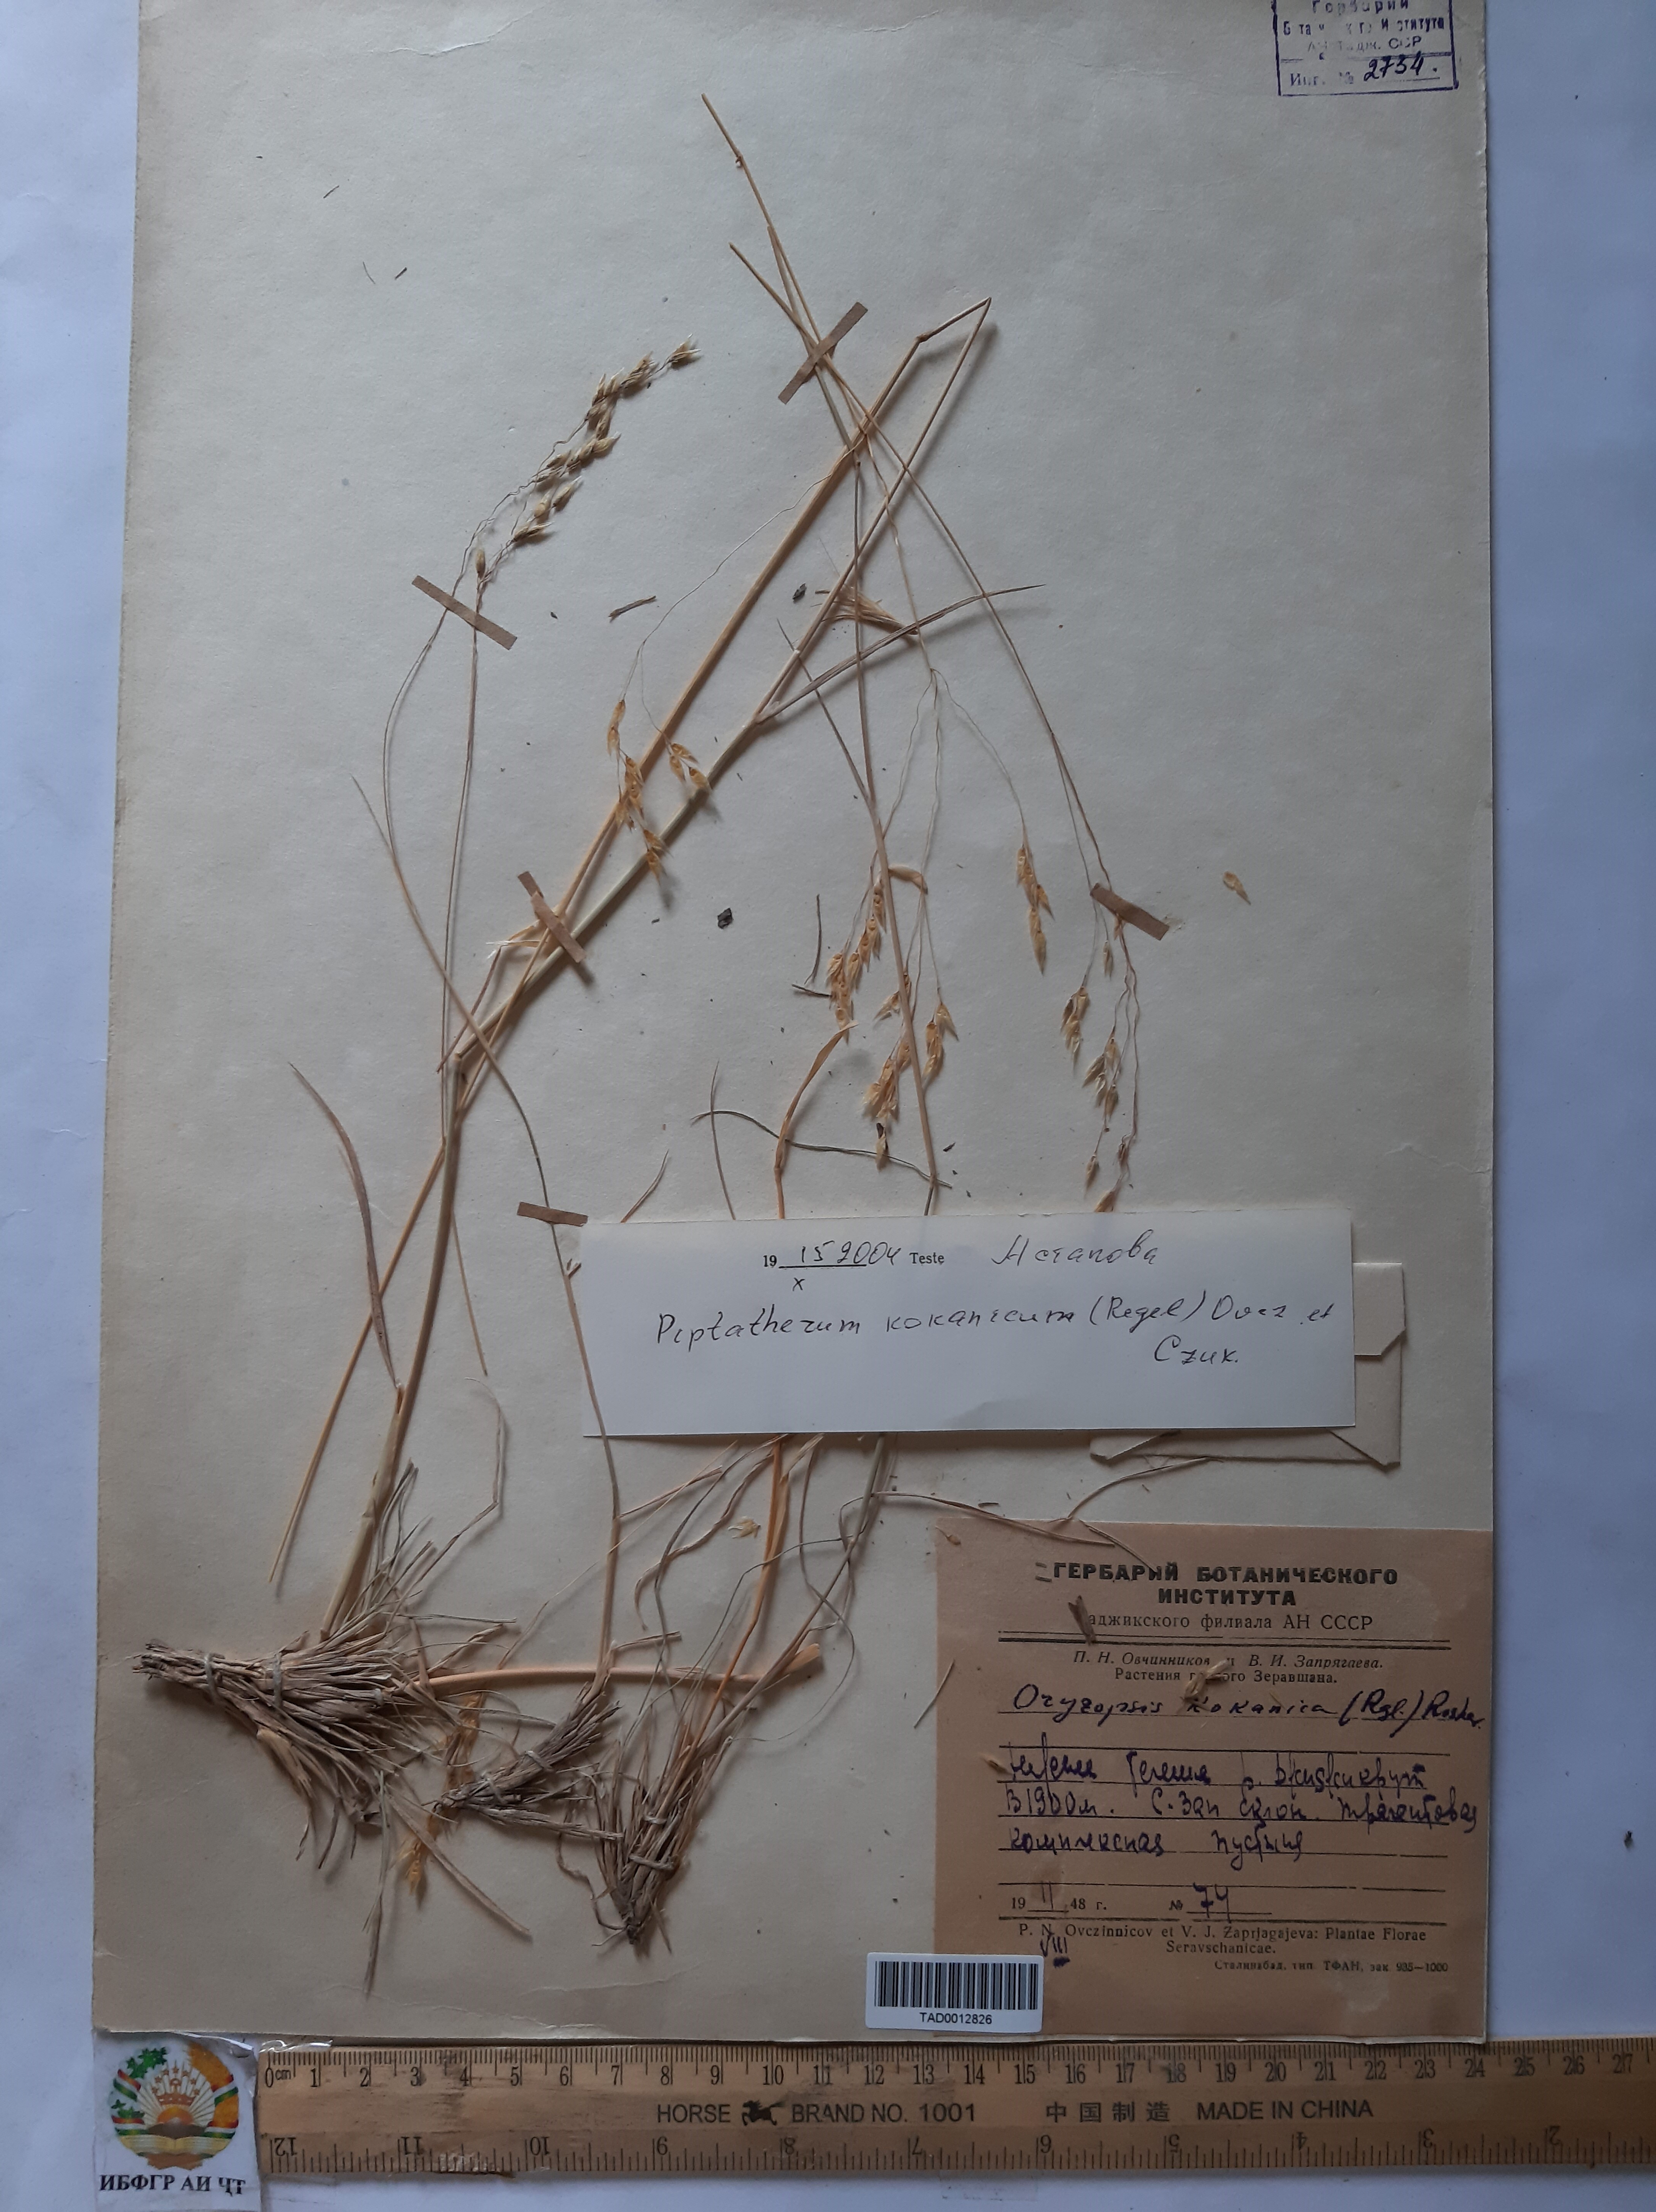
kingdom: Plantae
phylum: Tracheophyta
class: Liliopsida
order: Poales
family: Poaceae
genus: Piptatherum
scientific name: Piptatherum songaricum
